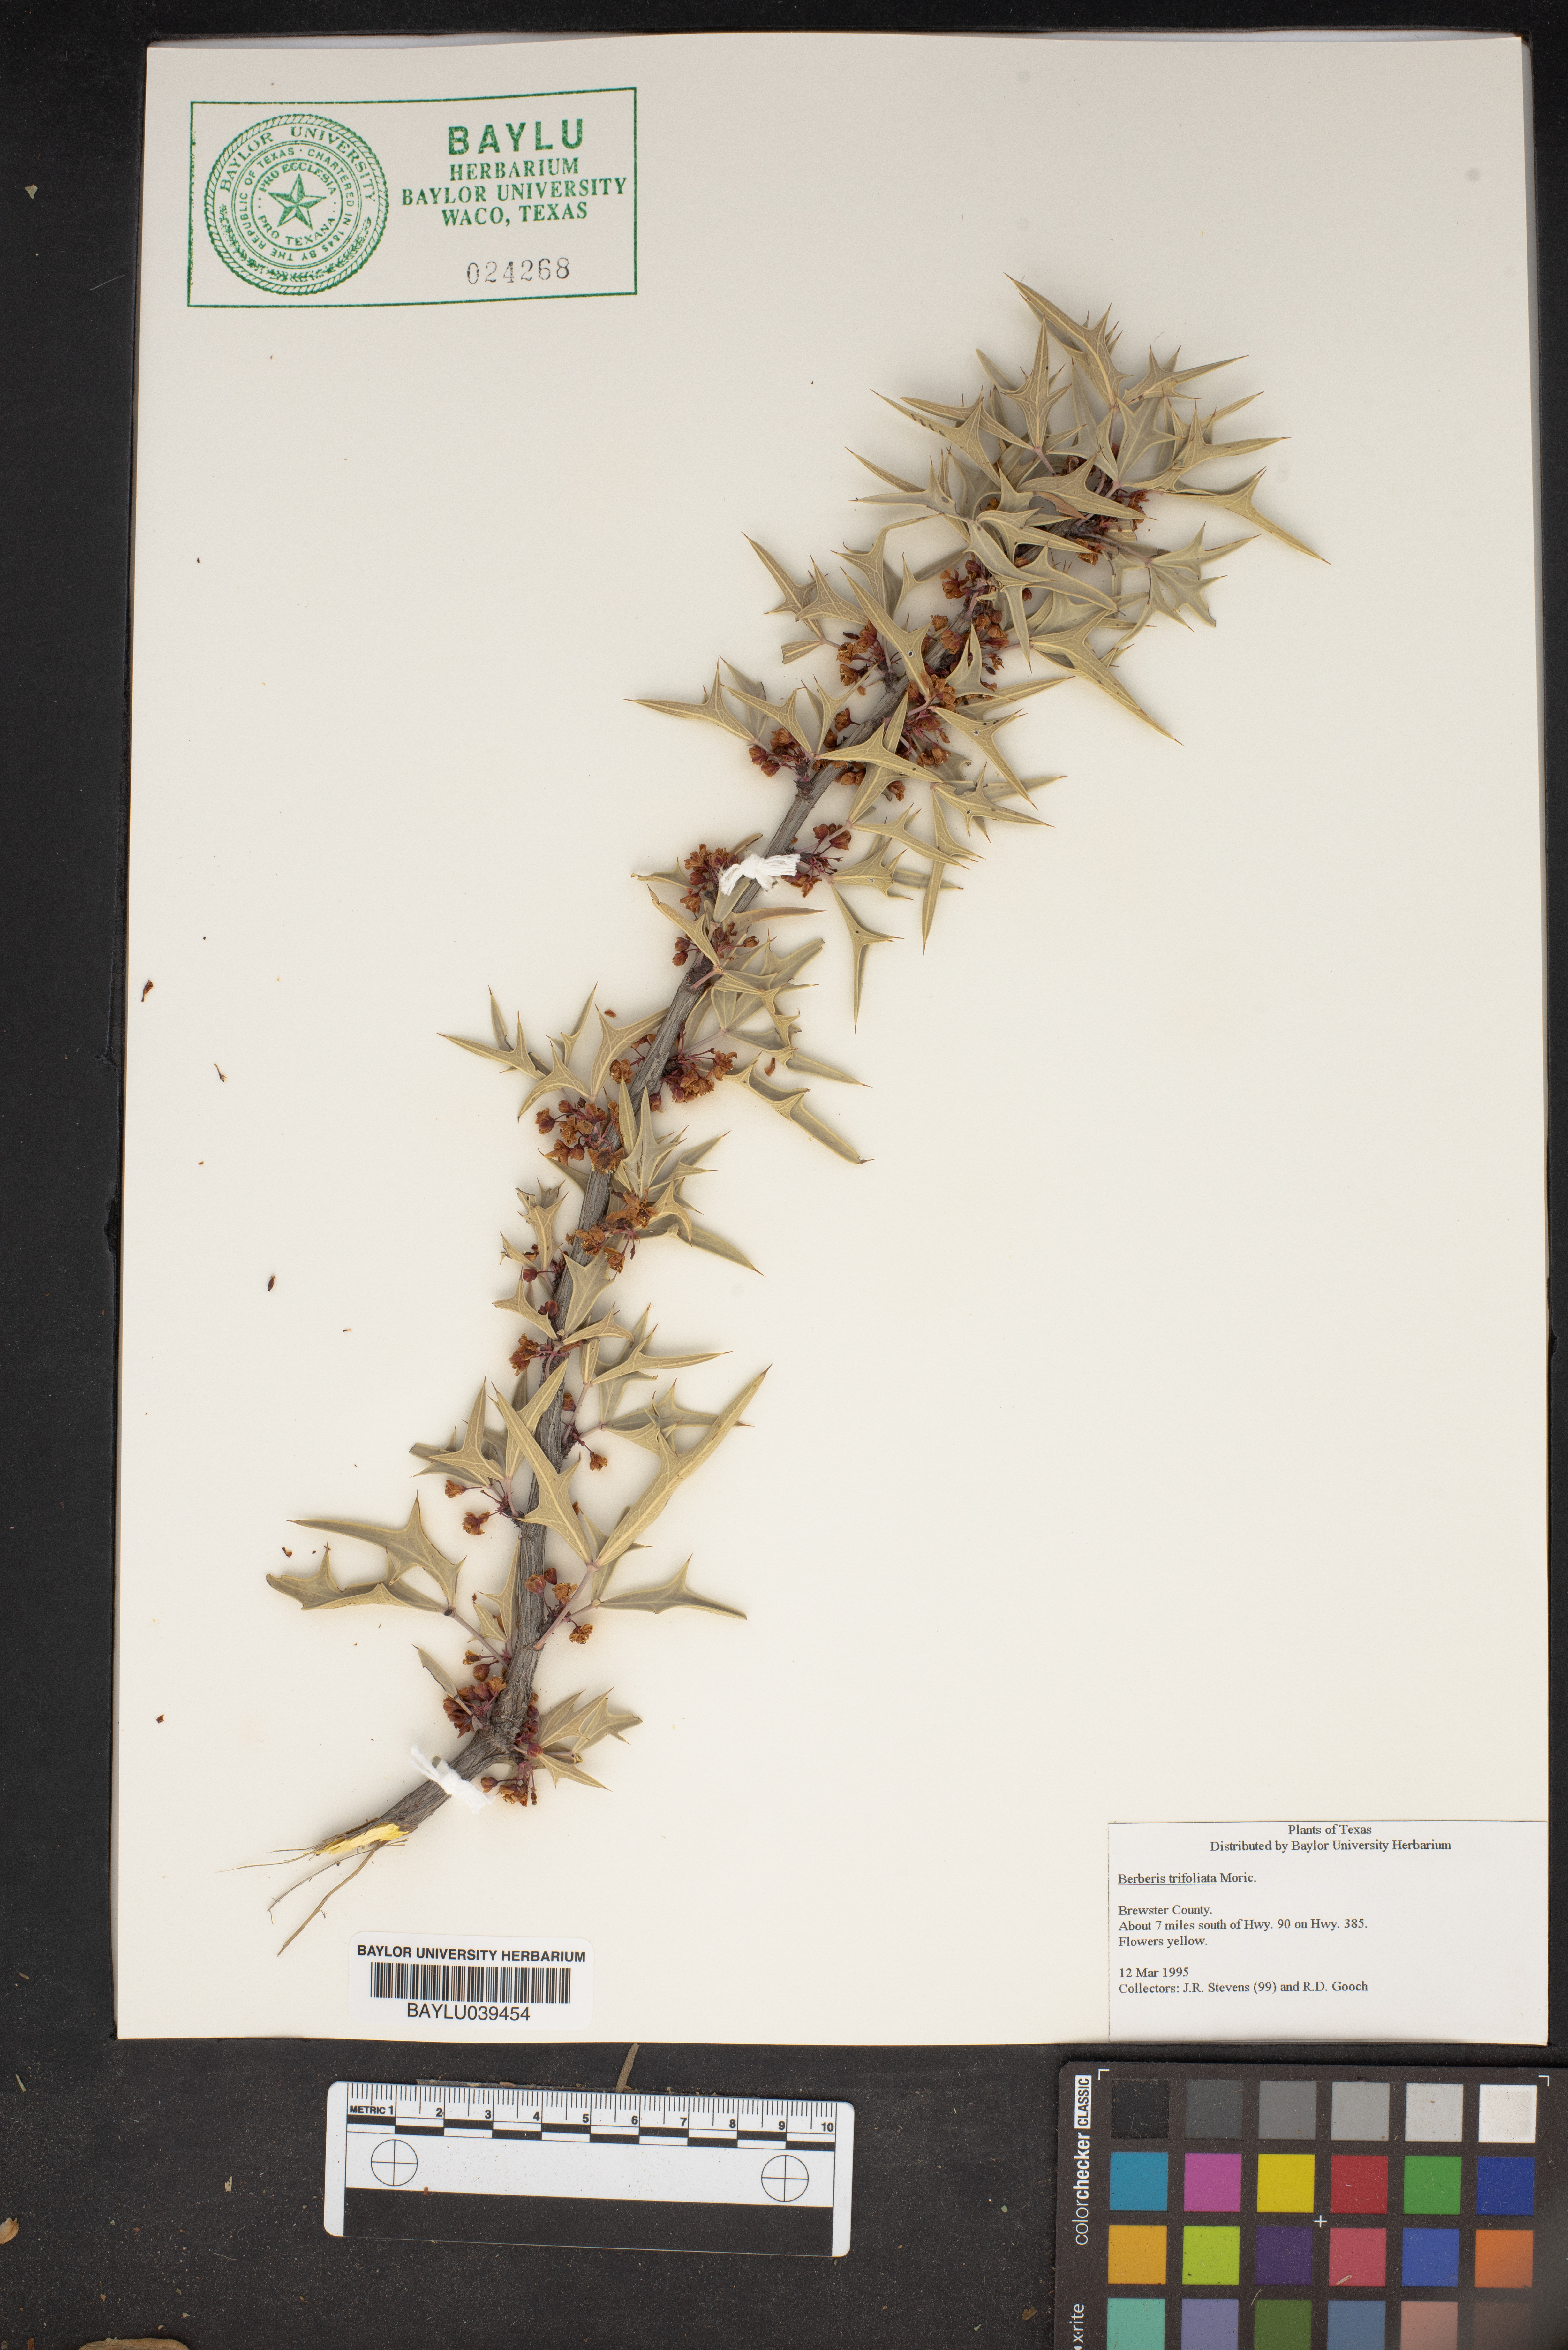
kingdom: Plantae
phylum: Tracheophyta
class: Magnoliopsida
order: Ranunculales
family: Berberidaceae
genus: Alloberberis
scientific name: Alloberberis fremontii
